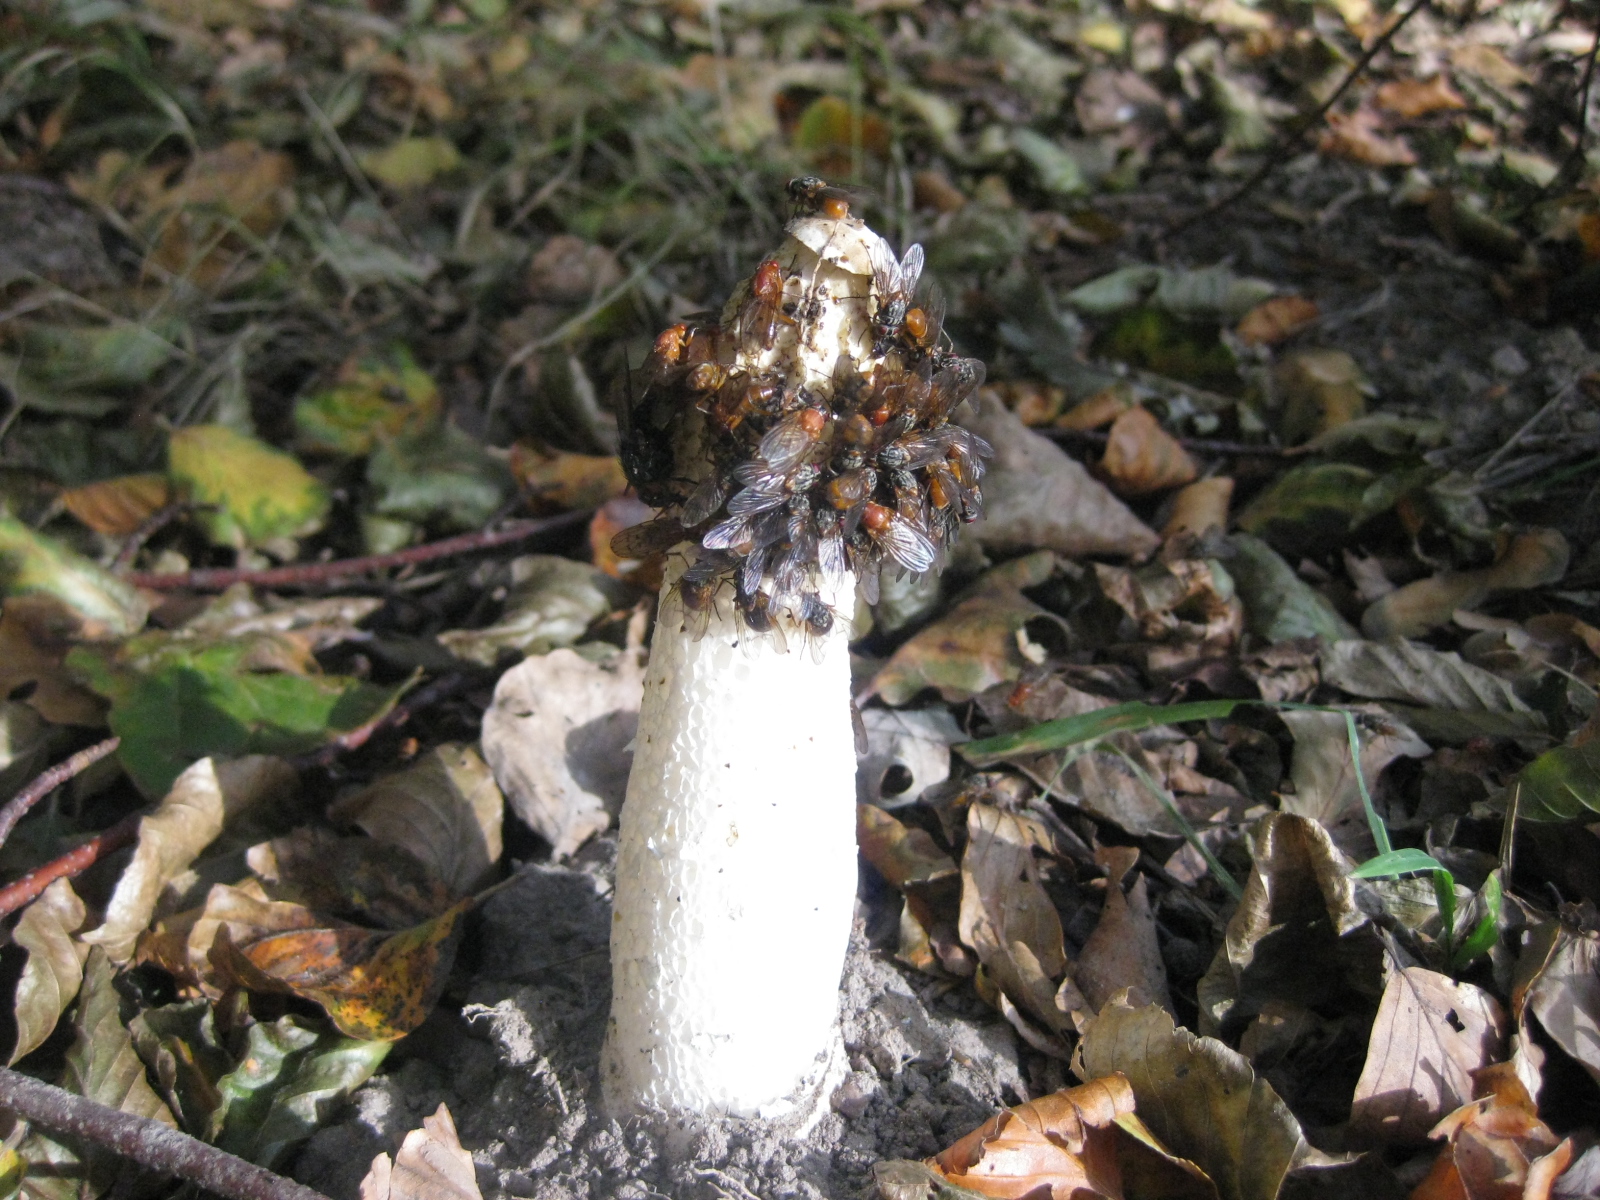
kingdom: Fungi
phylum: Basidiomycota
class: Agaricomycetes
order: Phallales
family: Phallaceae
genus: Phallus
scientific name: Phallus impudicus
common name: almindelig stinksvamp
